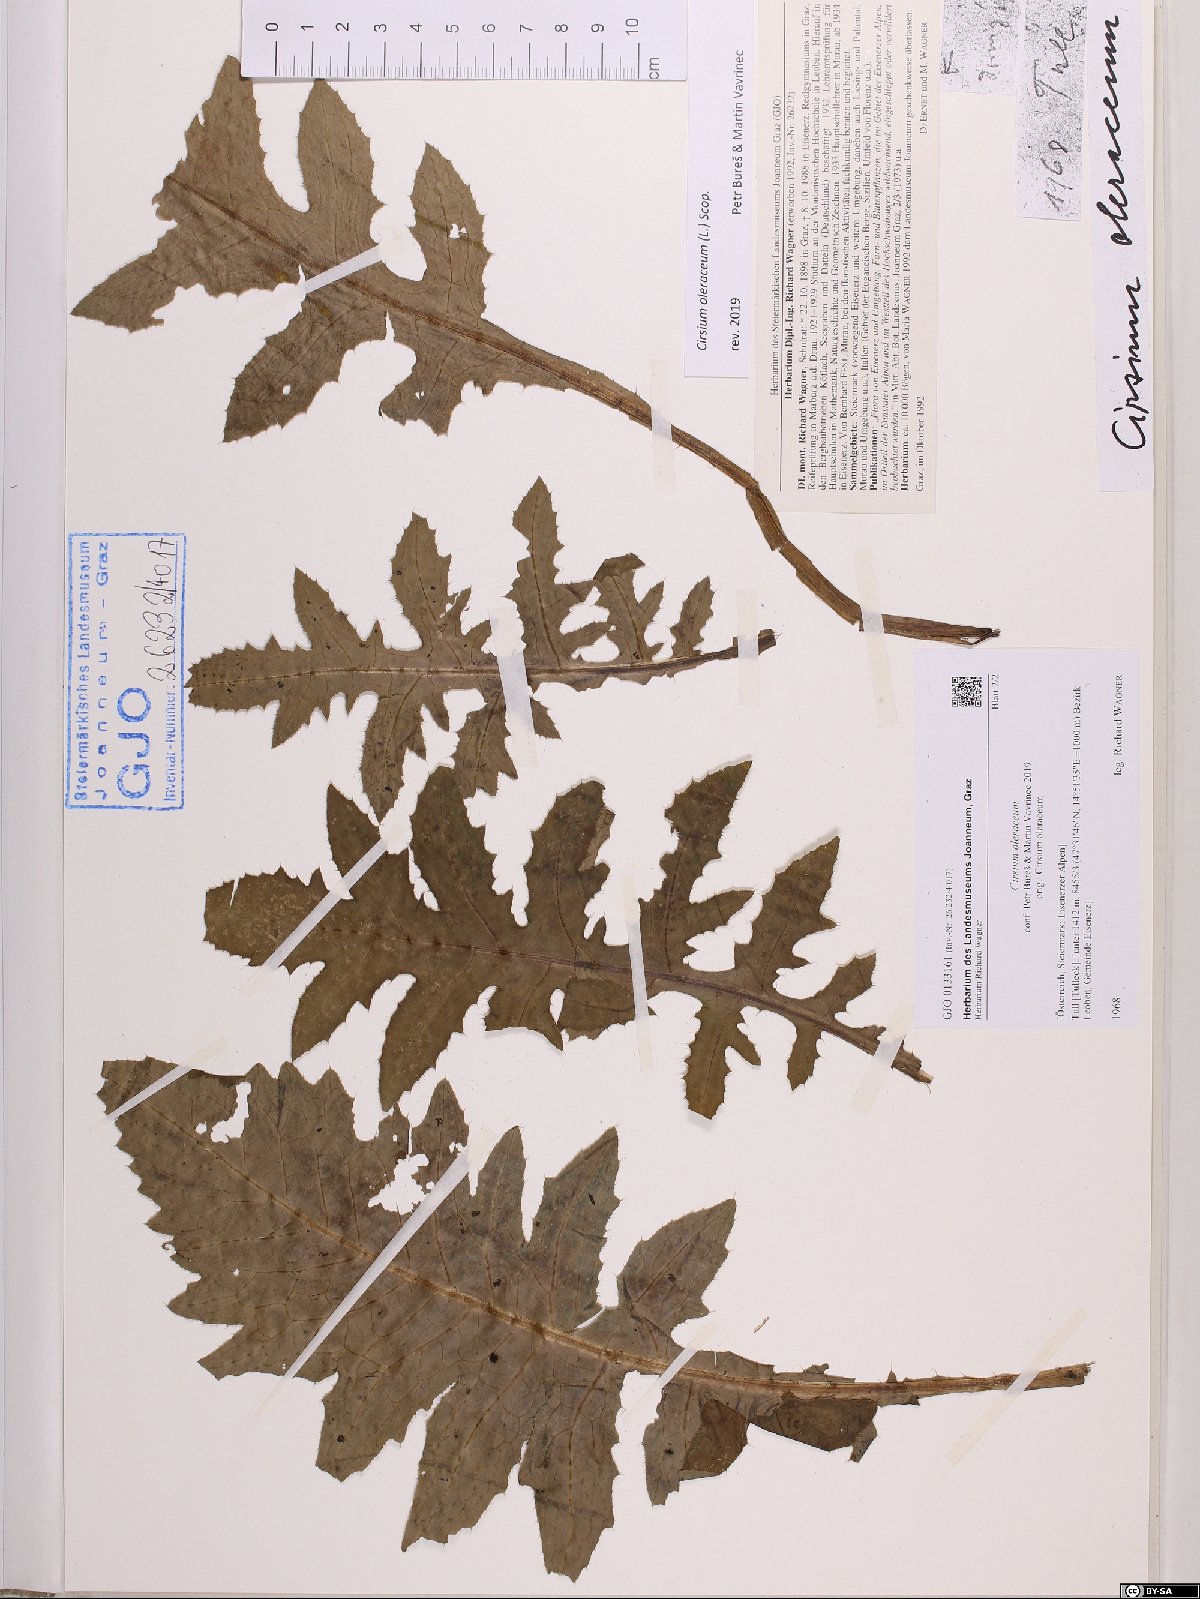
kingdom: Plantae
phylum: Tracheophyta
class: Magnoliopsida
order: Asterales
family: Asteraceae
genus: Cirsium
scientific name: Cirsium oleraceum
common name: Cabbage thistle
